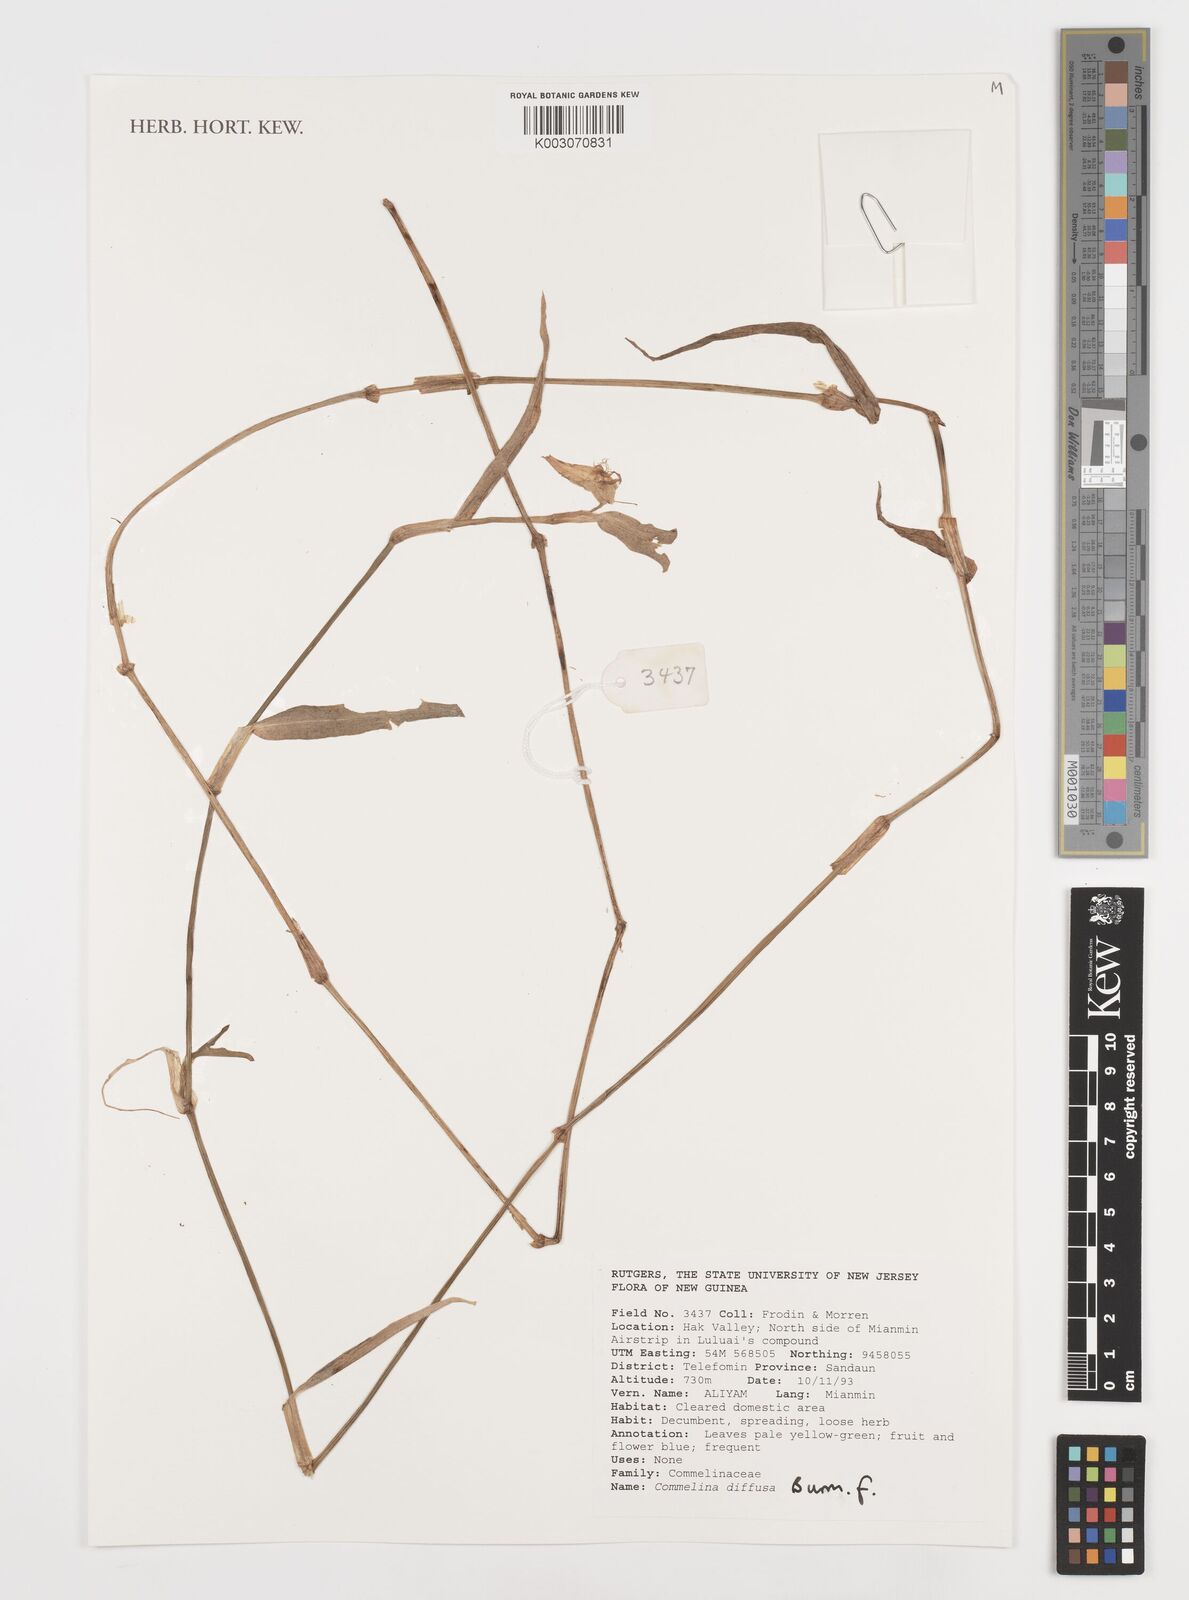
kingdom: Plantae
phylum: Tracheophyta
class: Liliopsida
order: Commelinales
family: Commelinaceae
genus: Commelina
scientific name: Commelina diffusa
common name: Climbing dayflower
